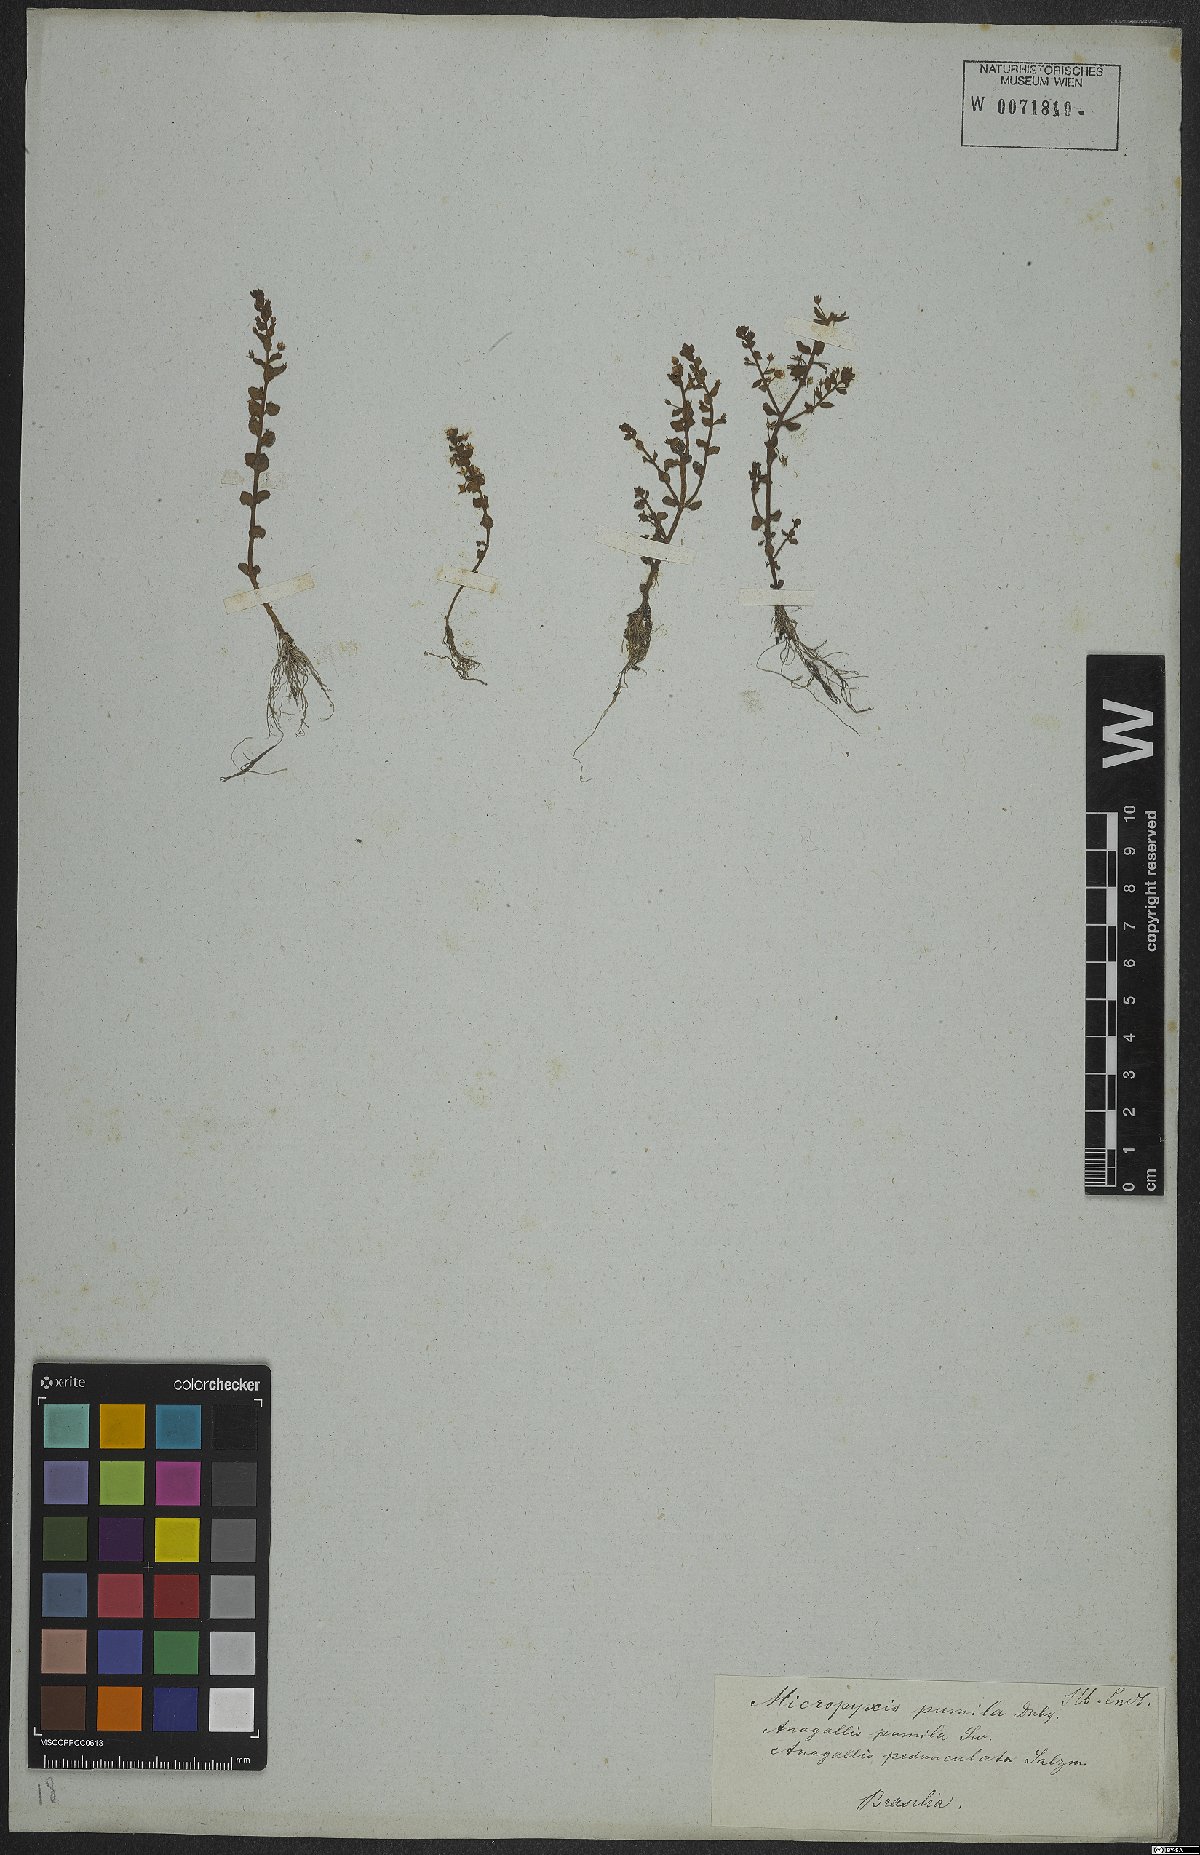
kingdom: Plantae
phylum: Tracheophyta
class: Magnoliopsida
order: Ericales
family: Primulaceae
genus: Lysimachia
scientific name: Lysimachia ovalis
